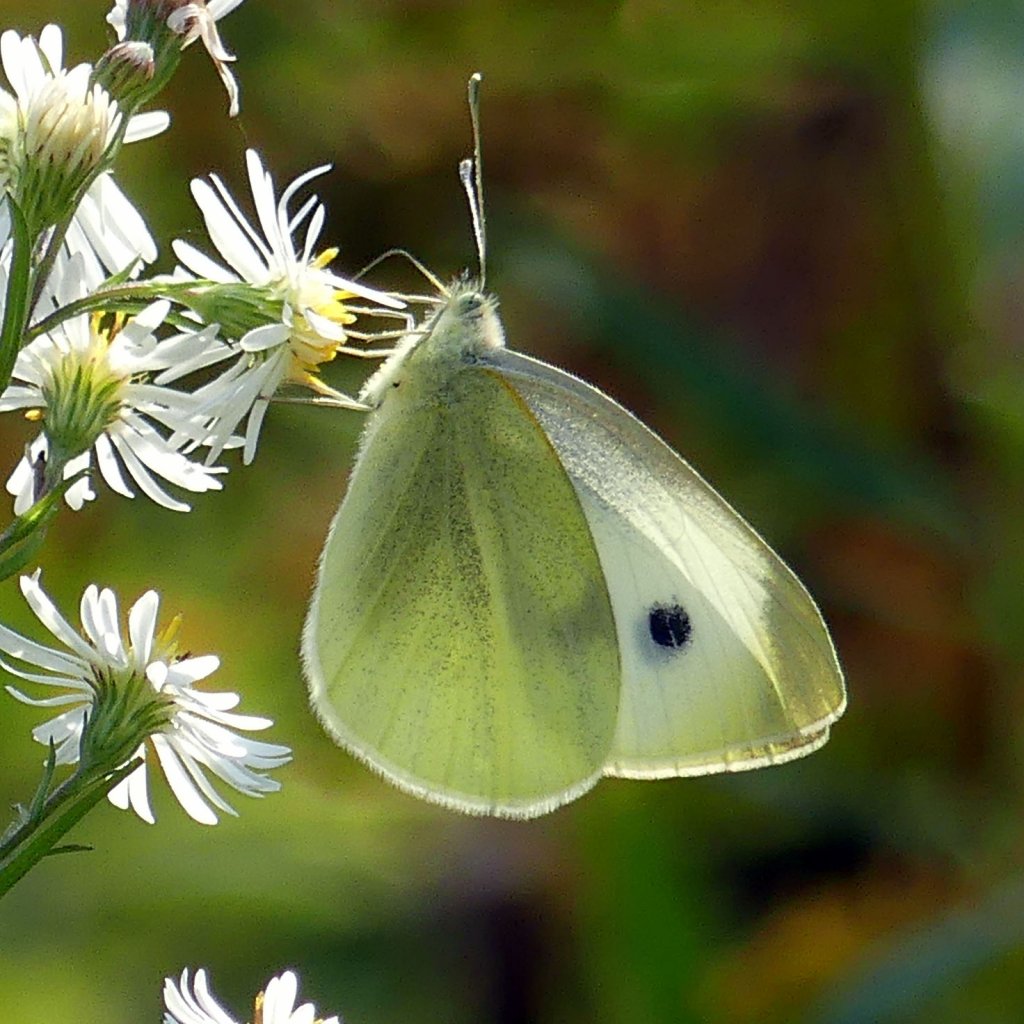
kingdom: Animalia
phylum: Arthropoda
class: Insecta
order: Lepidoptera
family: Pieridae
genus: Pieris
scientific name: Pieris rapae
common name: Cabbage White
